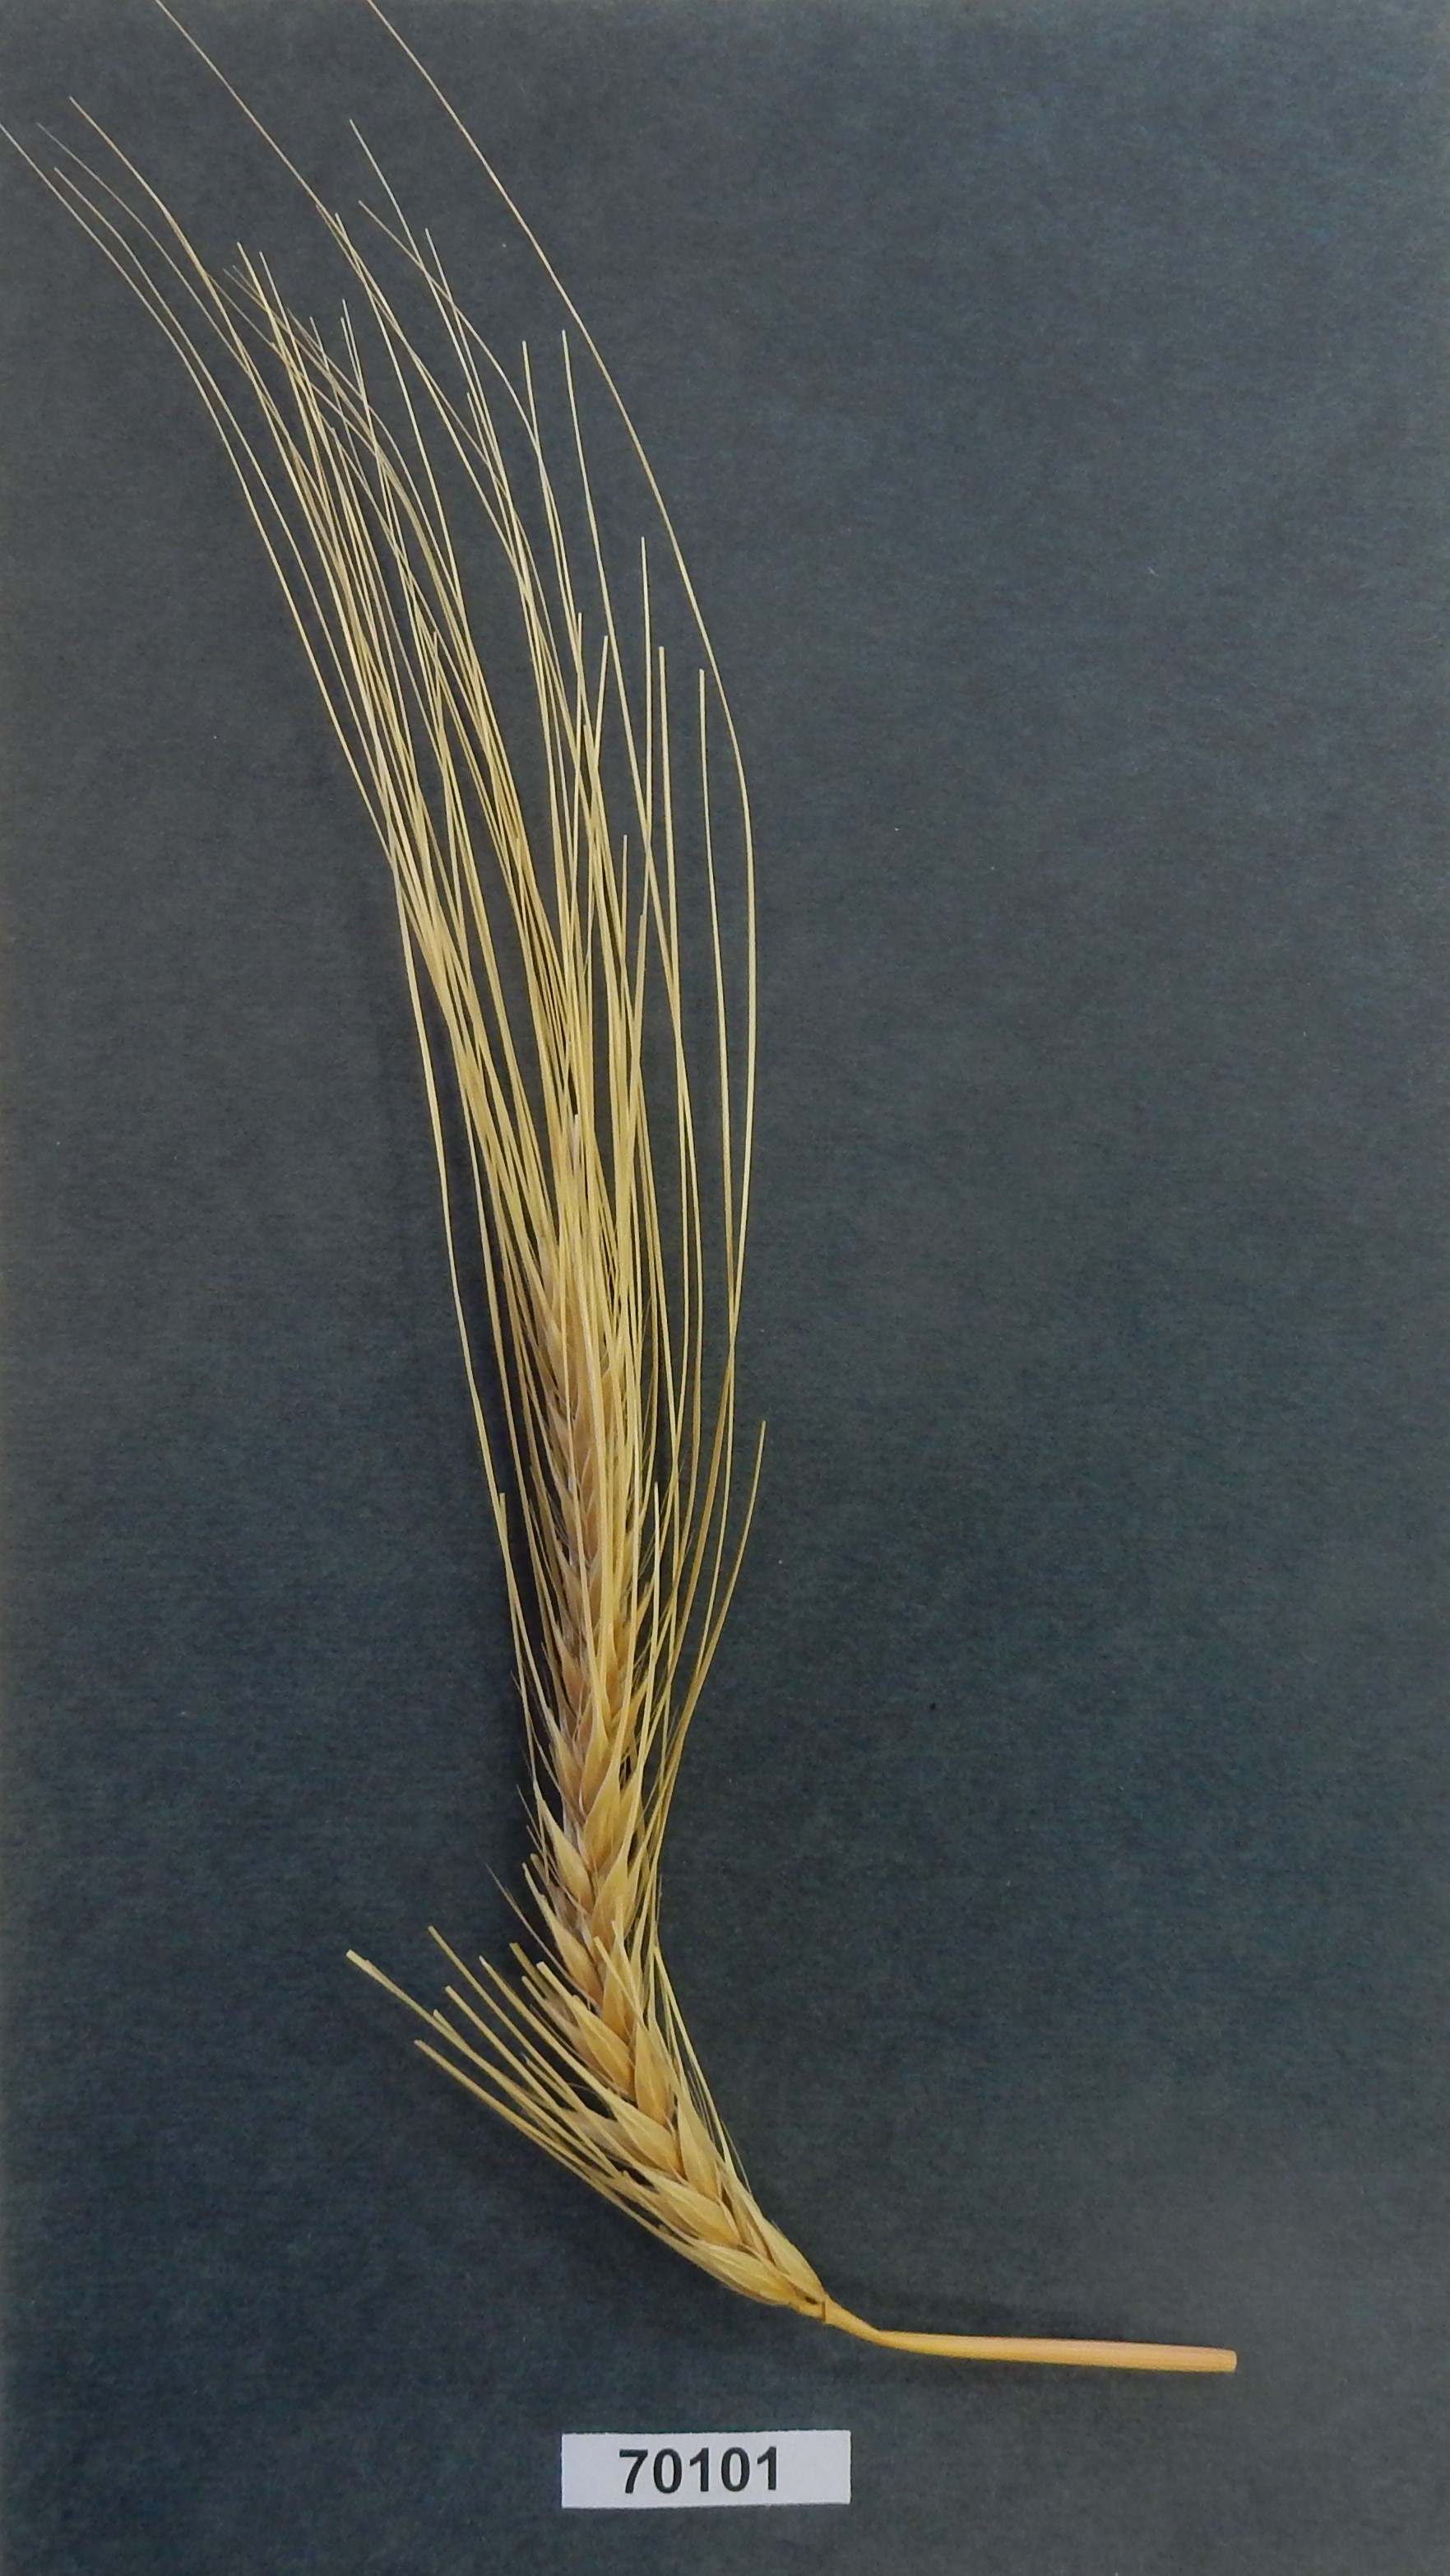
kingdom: Plantae
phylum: Tracheophyta
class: Liliopsida
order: Poales
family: Poaceae
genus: Hordeum
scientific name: Hordeum
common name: Barley
